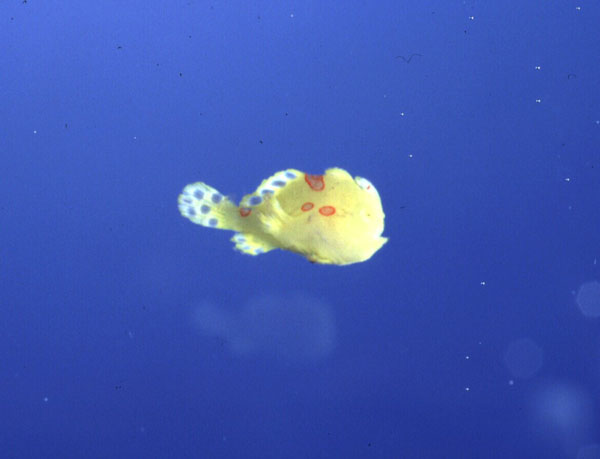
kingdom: Animalia
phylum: Chordata
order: Lophiiformes
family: Antennariidae
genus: Antennarius
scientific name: Antennarius pictus
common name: Painted frogfish
